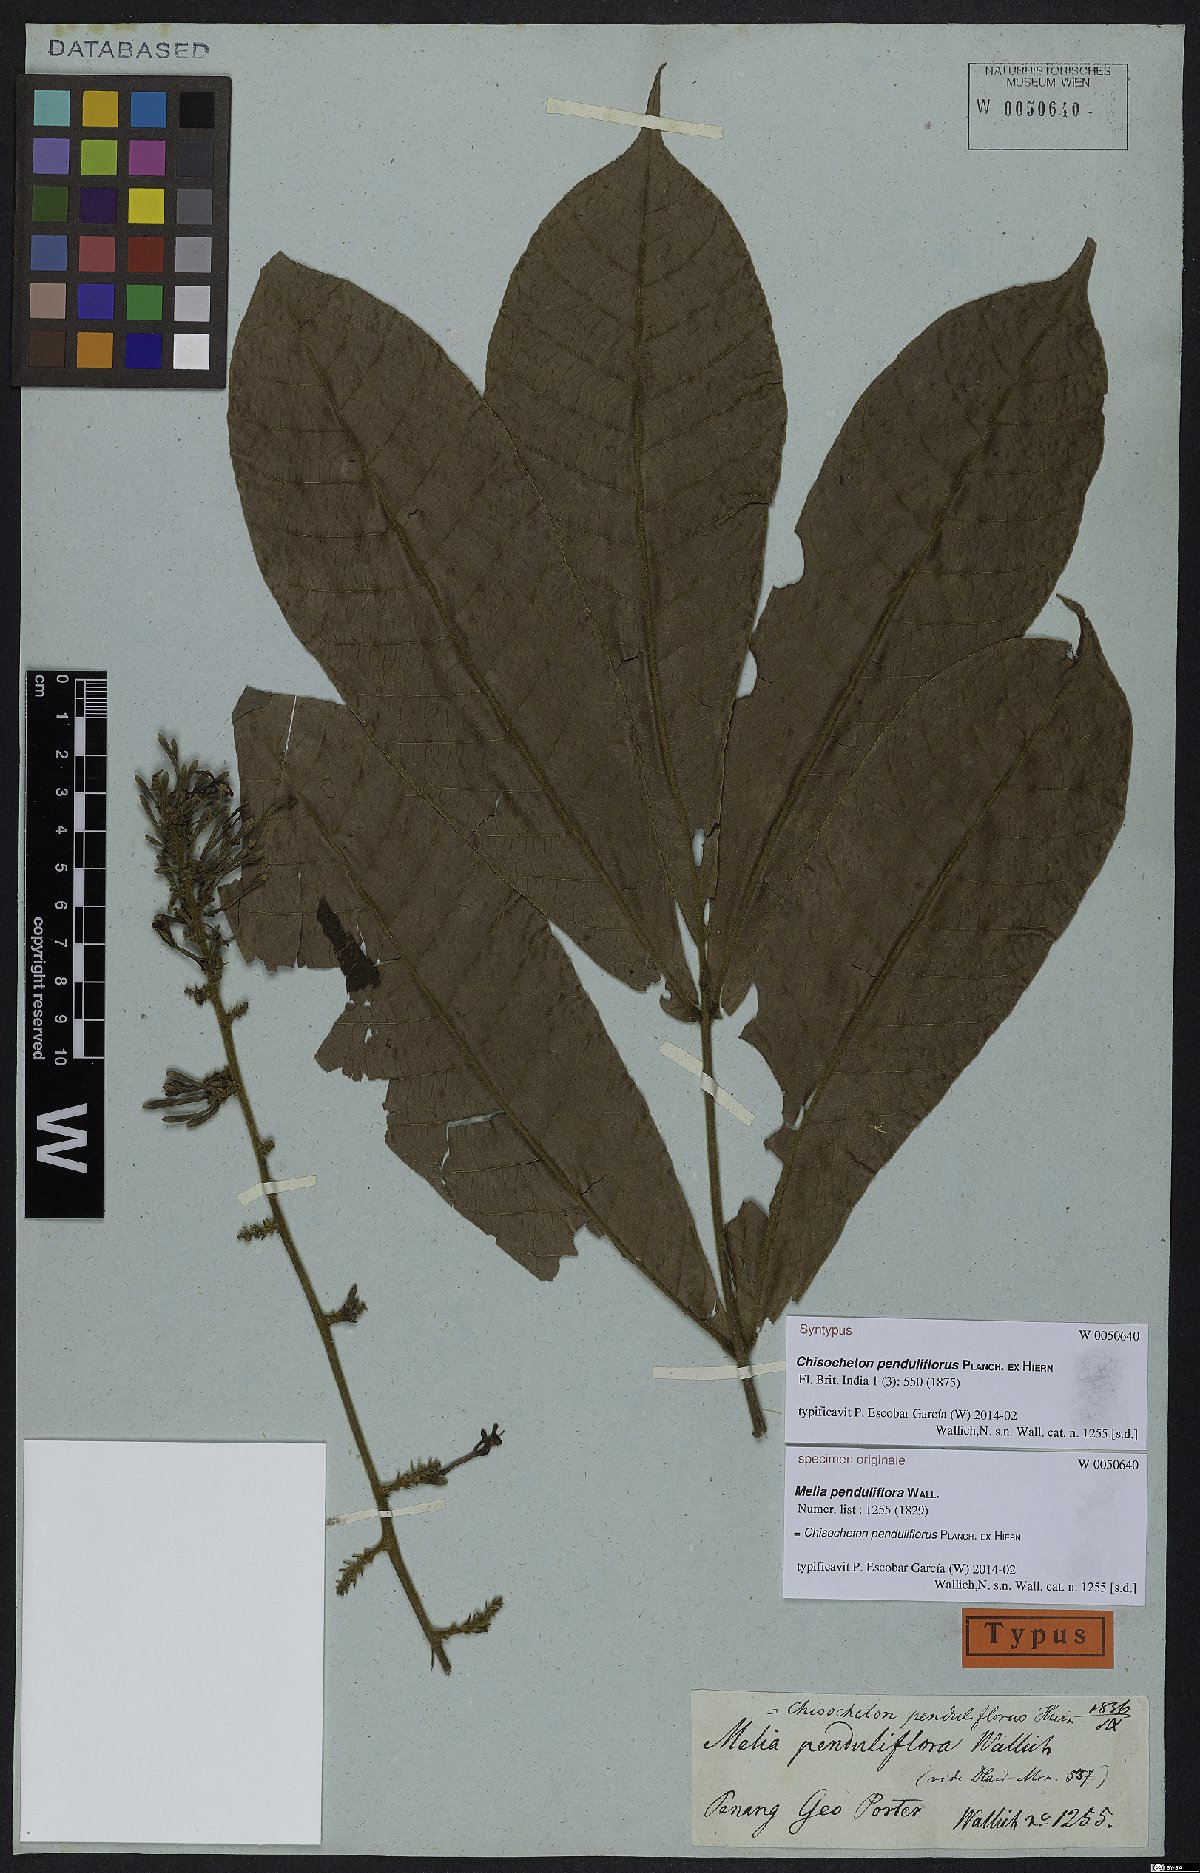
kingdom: Plantae
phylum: Tracheophyta
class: Magnoliopsida
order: Sapindales
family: Meliaceae
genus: Chisocheton
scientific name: Chisocheton penduliflorus
